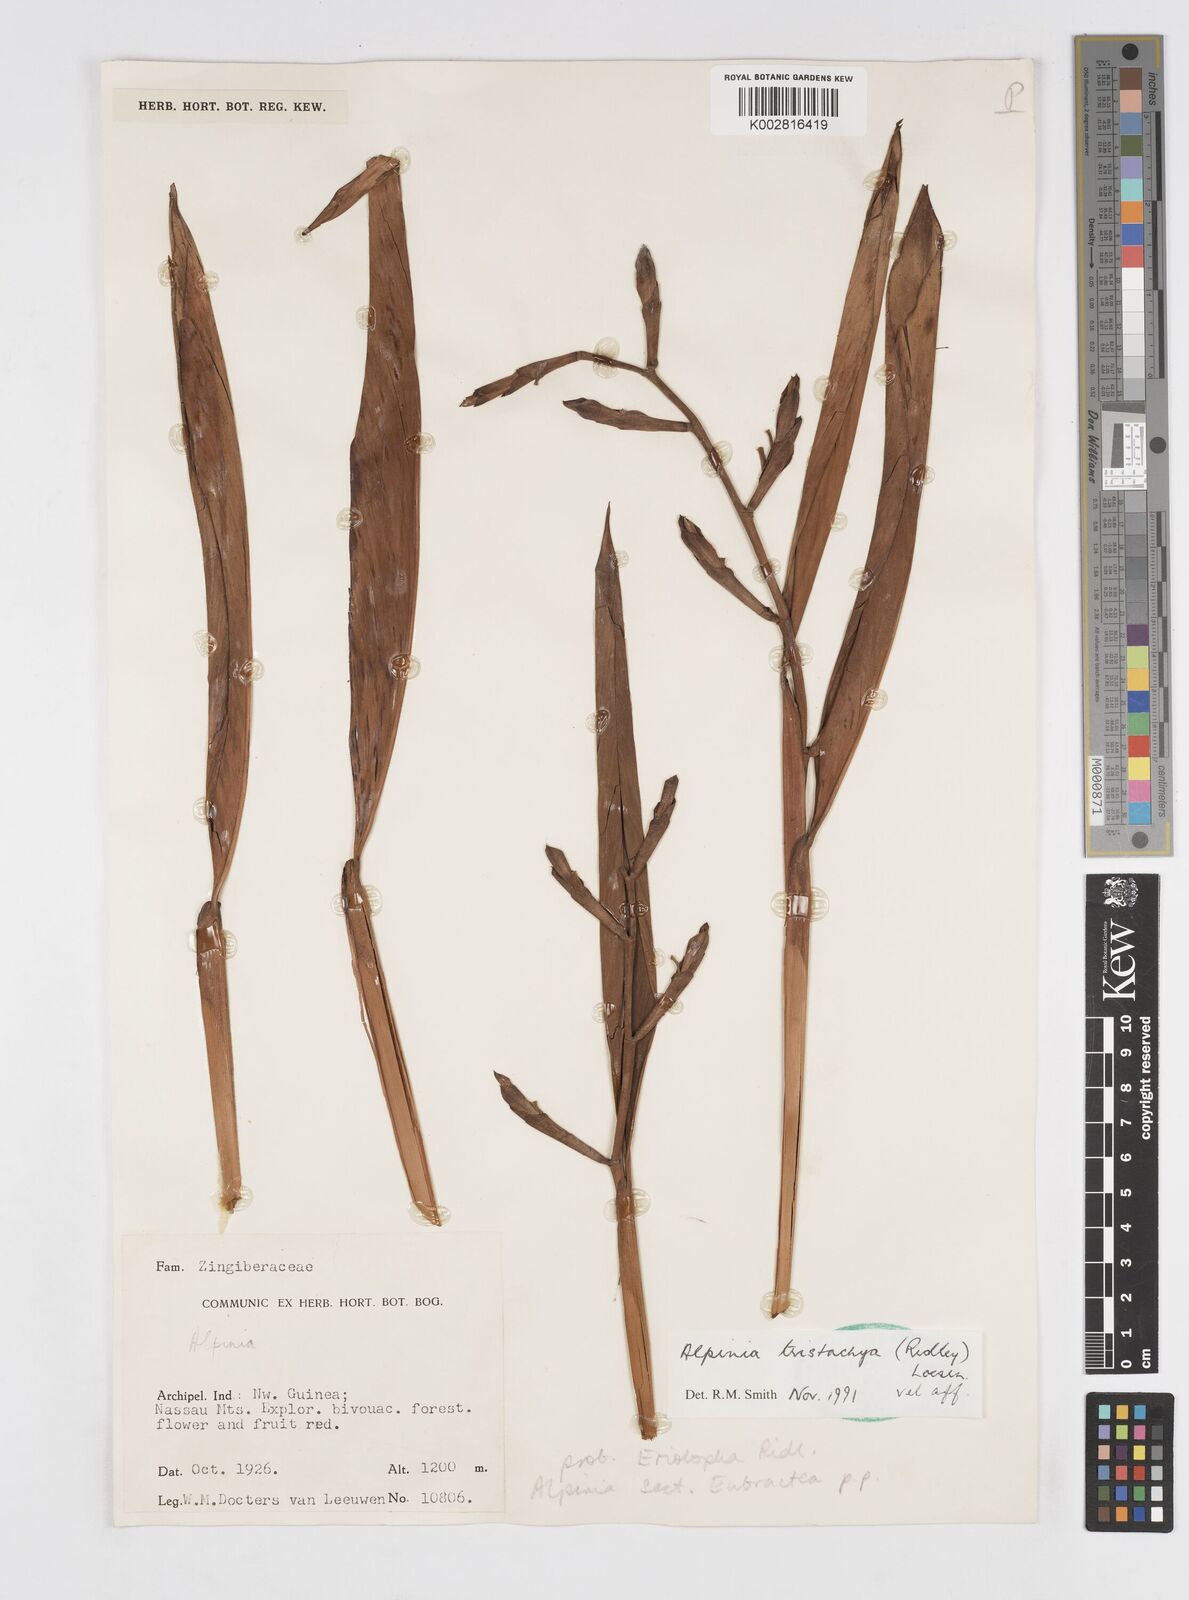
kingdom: Plantae
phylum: Tracheophyta
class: Liliopsida
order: Zingiberales
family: Zingiberaceae
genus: Alpinia
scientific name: Alpinia tristachya
